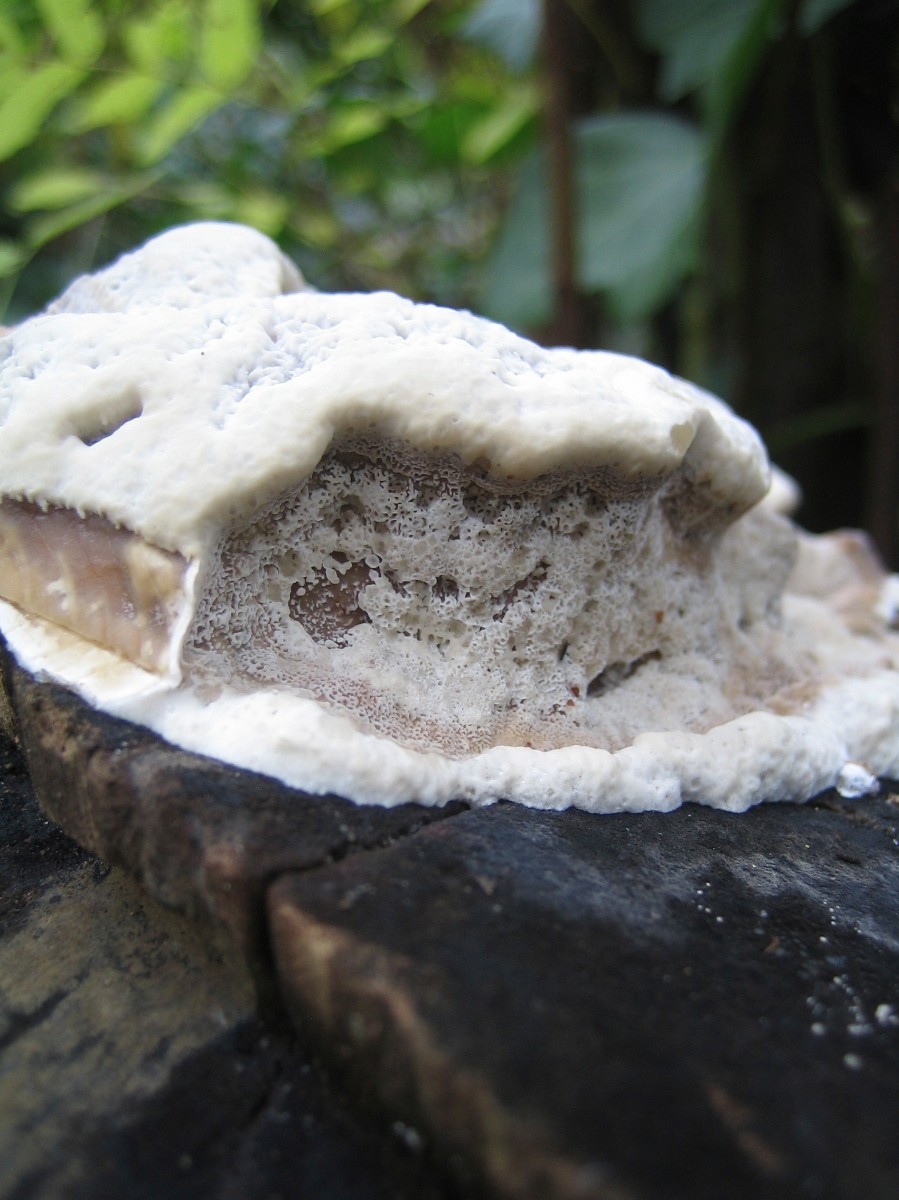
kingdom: Fungi
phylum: Basidiomycota
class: Agaricomycetes
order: Polyporales
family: Phanerochaetaceae
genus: Bjerkandera
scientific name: Bjerkandera adusta
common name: sveden sodporesvamp
